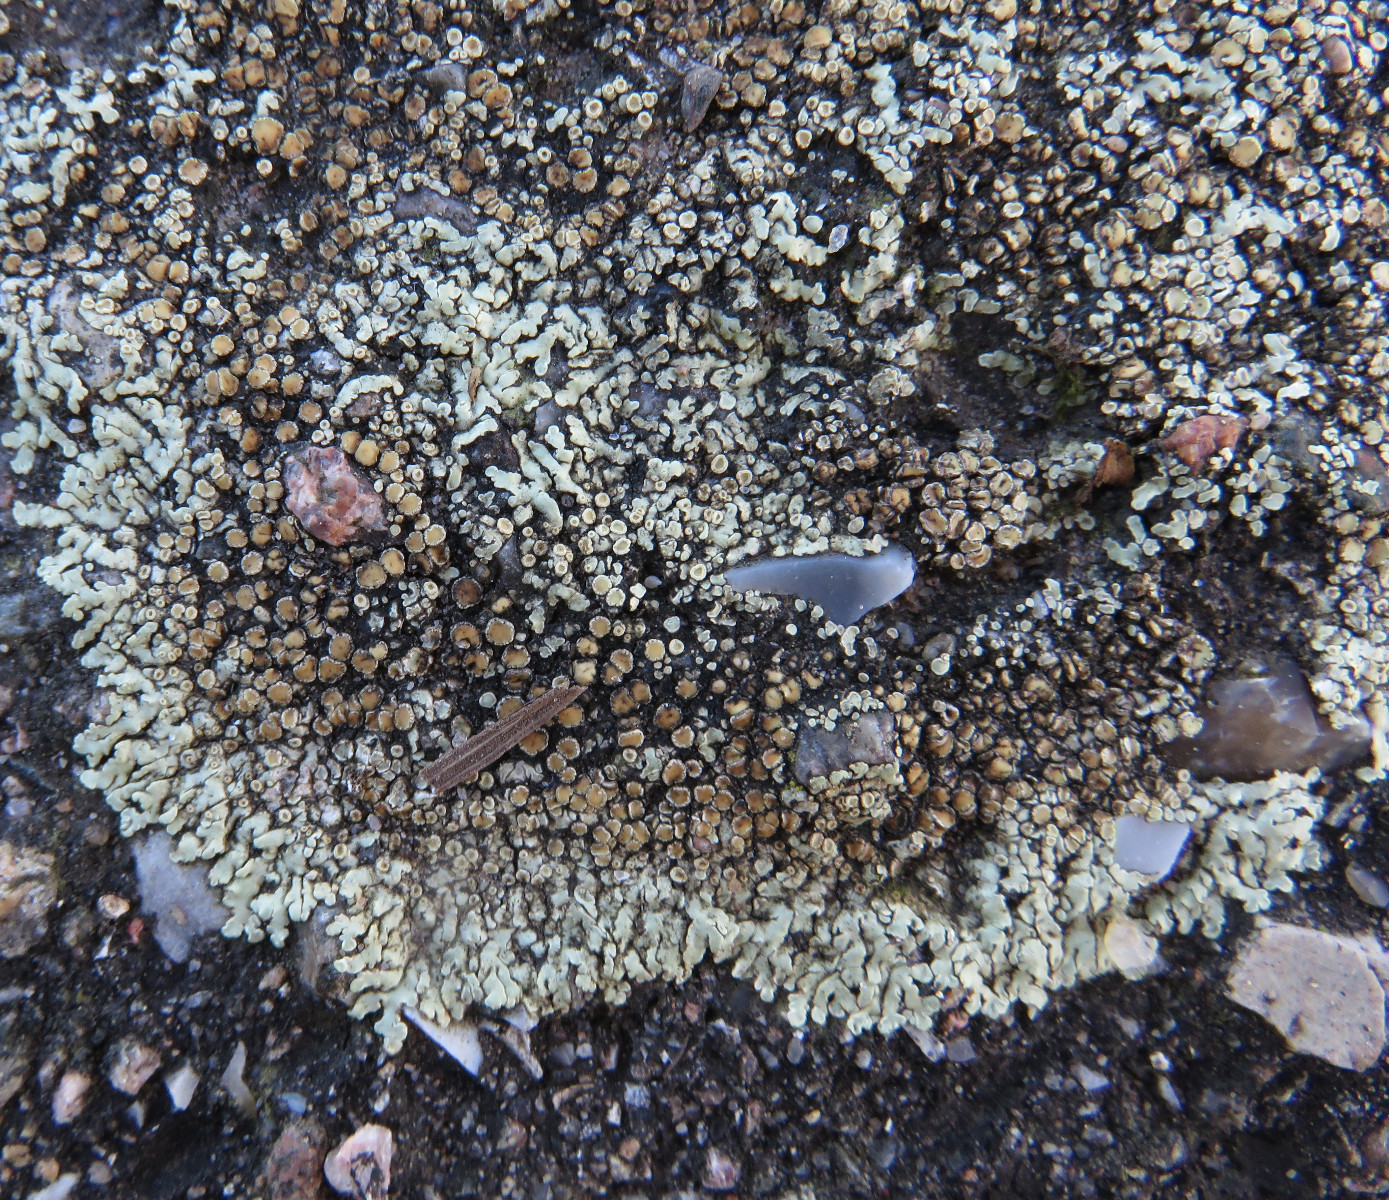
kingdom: Fungi
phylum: Ascomycota
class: Lecanoromycetes
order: Lecanorales
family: Lecanoraceae
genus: Protoparmeliopsis
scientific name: Protoparmeliopsis muralis
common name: randfliget kantskivelav
